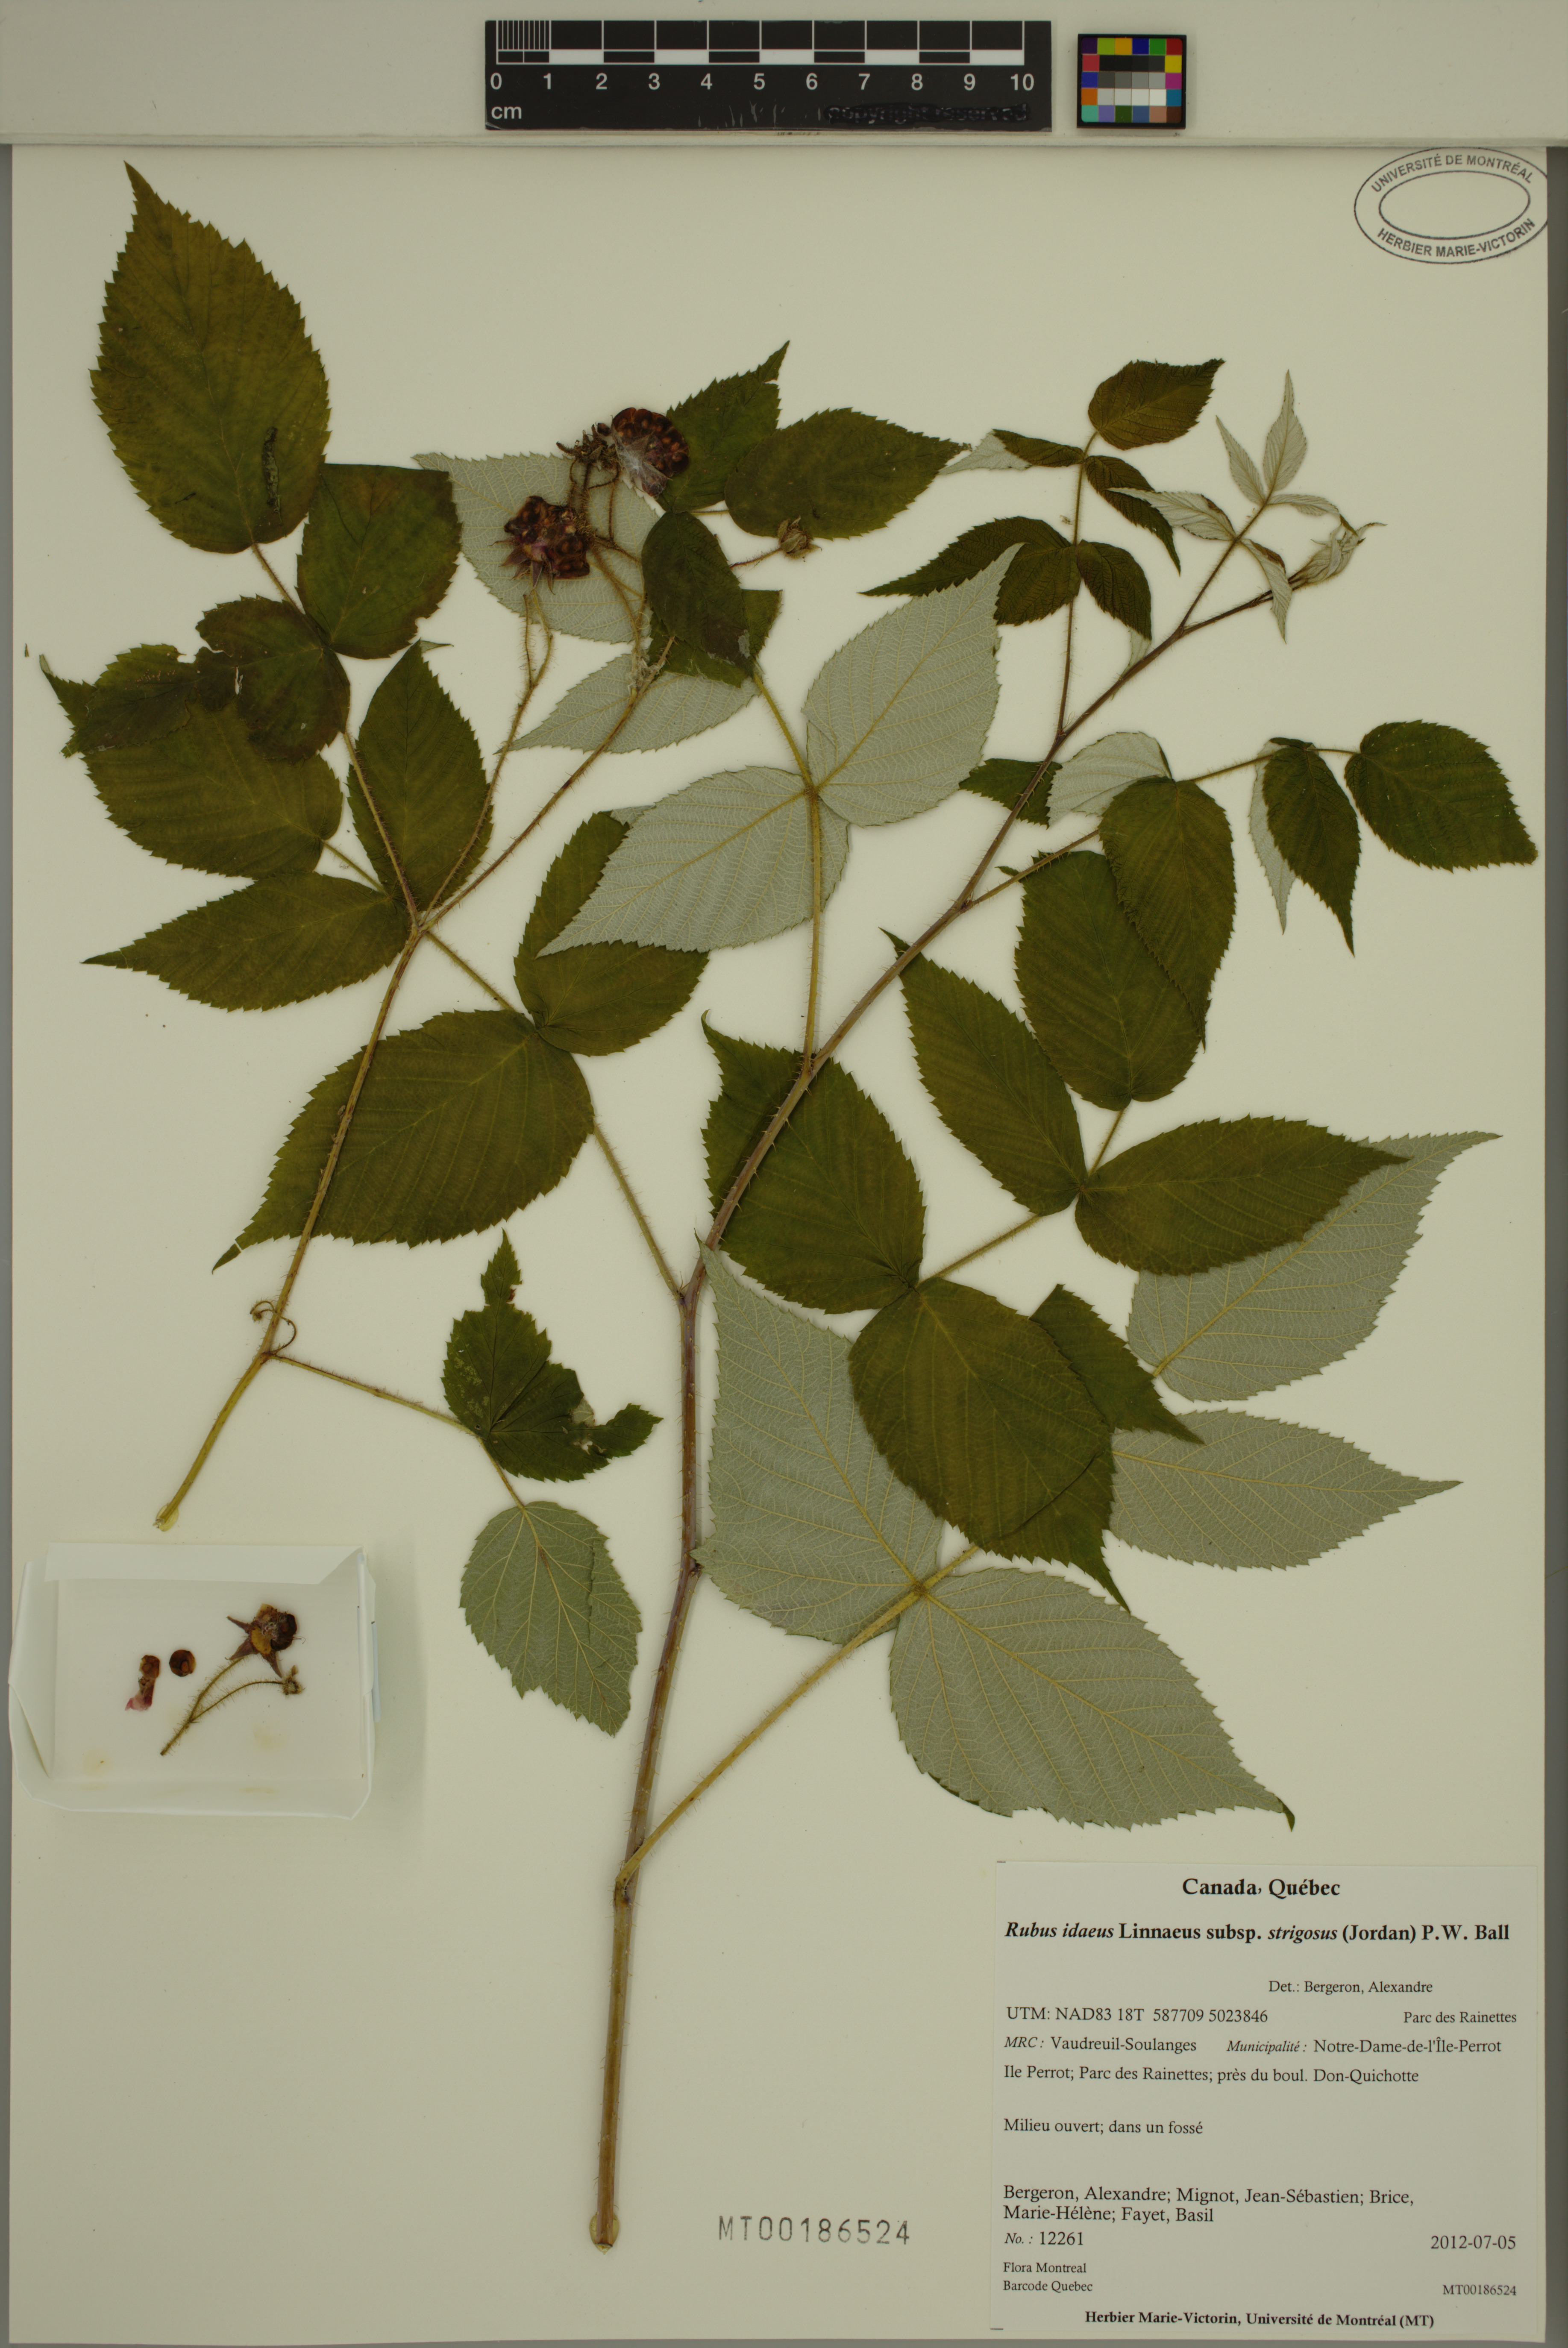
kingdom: Plantae
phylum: Tracheophyta
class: Magnoliopsida
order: Rosales
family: Rosaceae
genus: Rubus
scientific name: Rubus sachalinensis
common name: Red raspberry
